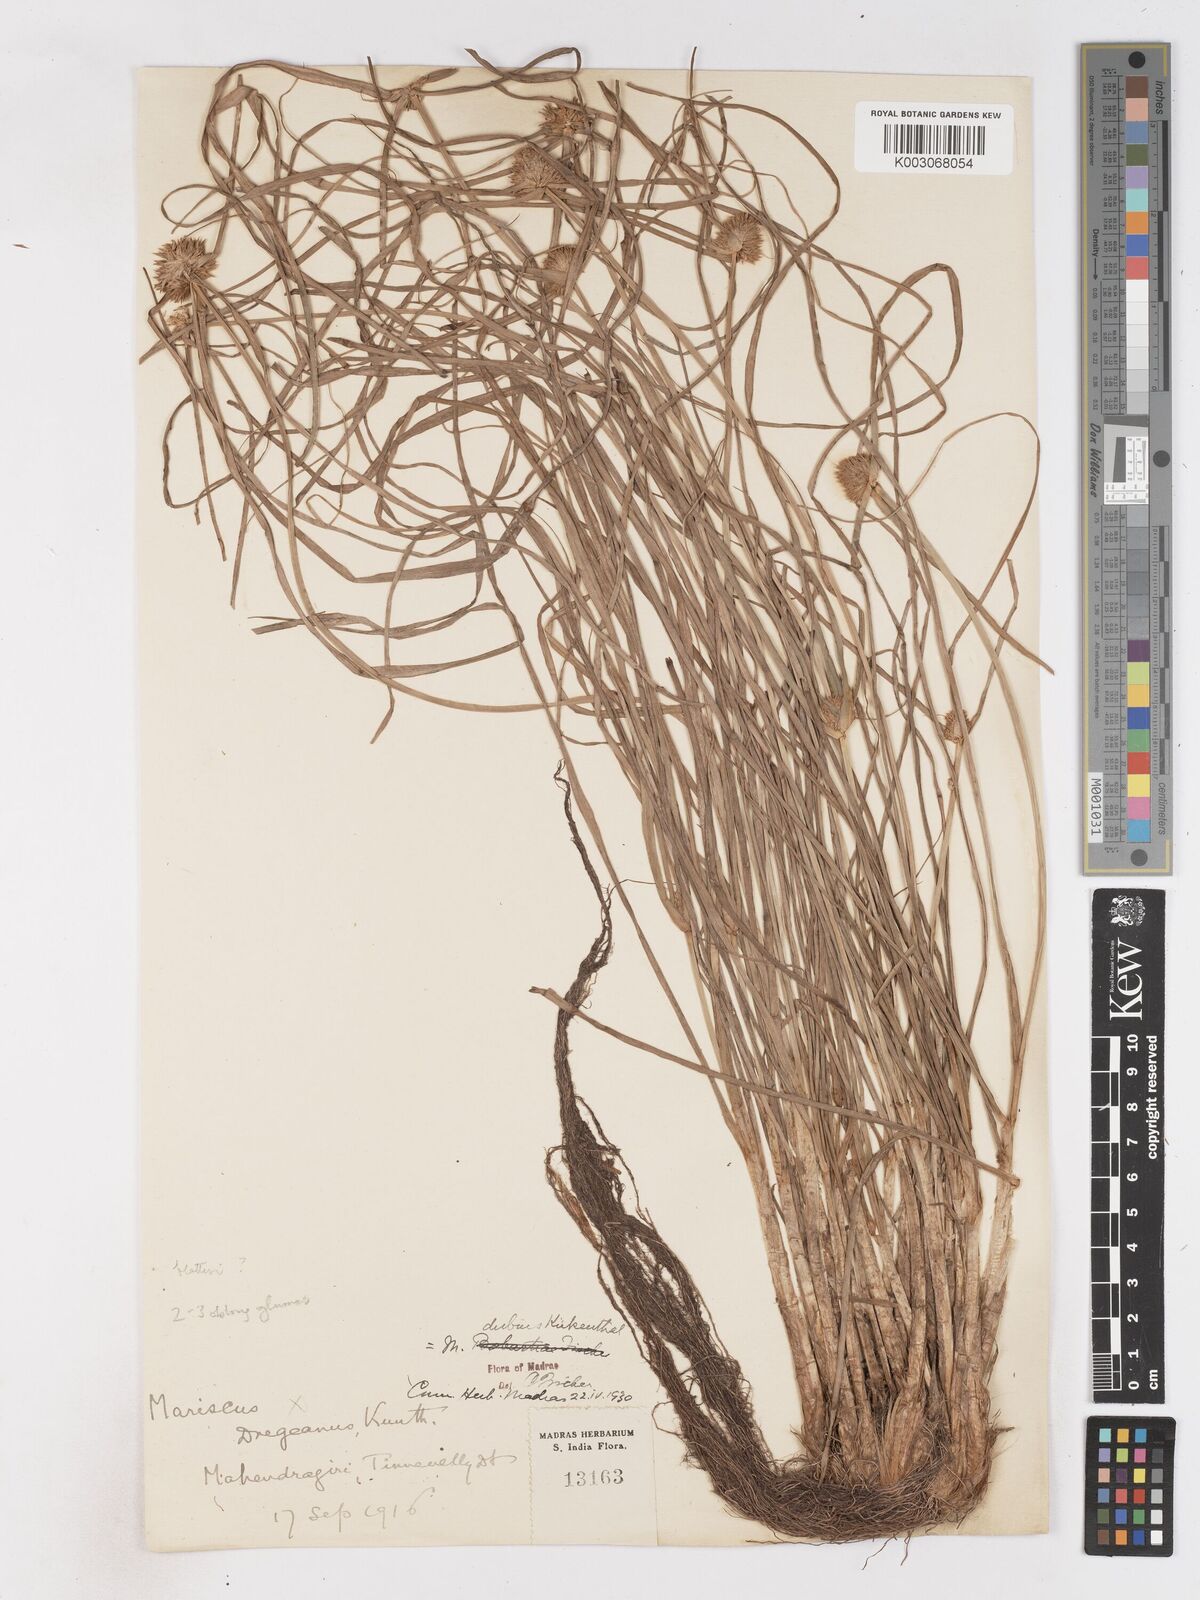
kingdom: Plantae
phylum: Tracheophyta
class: Liliopsida
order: Poales
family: Cyperaceae
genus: Cyperus
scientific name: Cyperus blatteri
